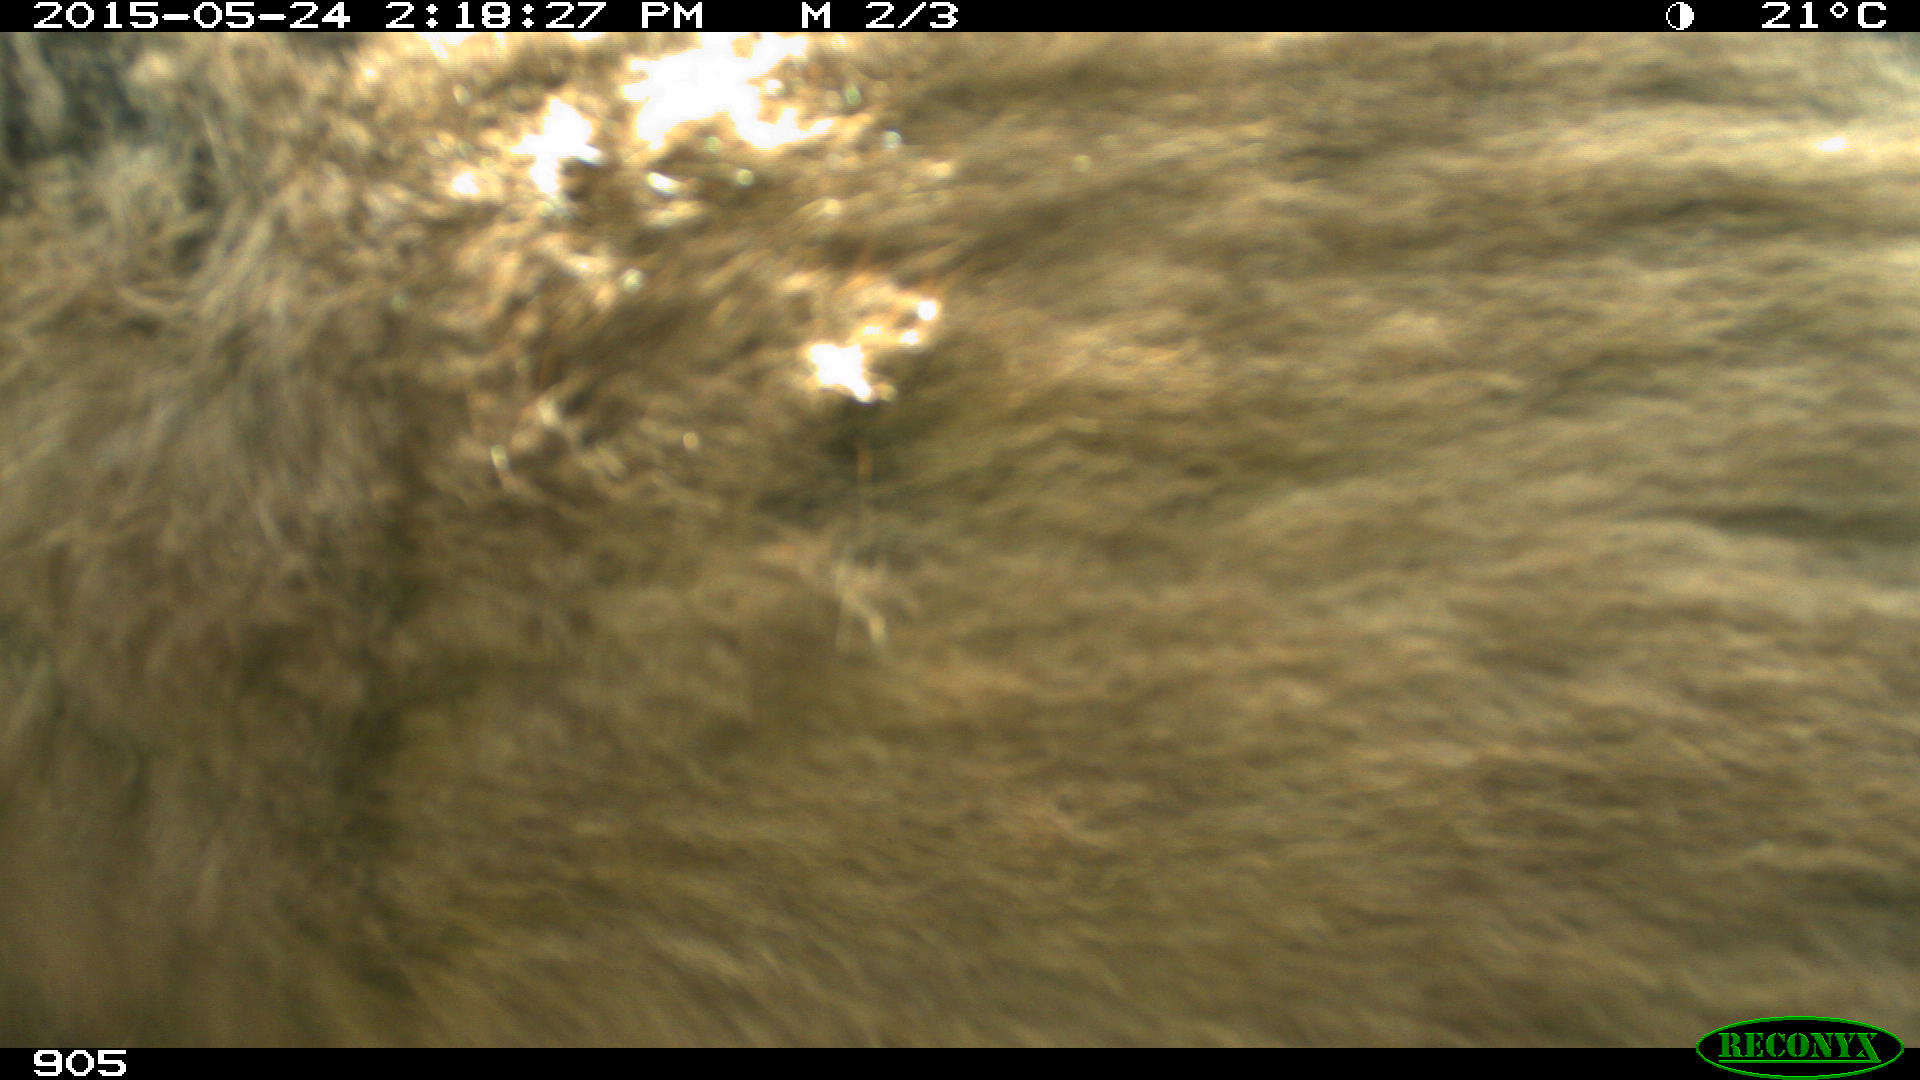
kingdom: Animalia
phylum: Chordata
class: Mammalia
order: Perissodactyla
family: Equidae
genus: Equus
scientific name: Equus caballus
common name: Horse
